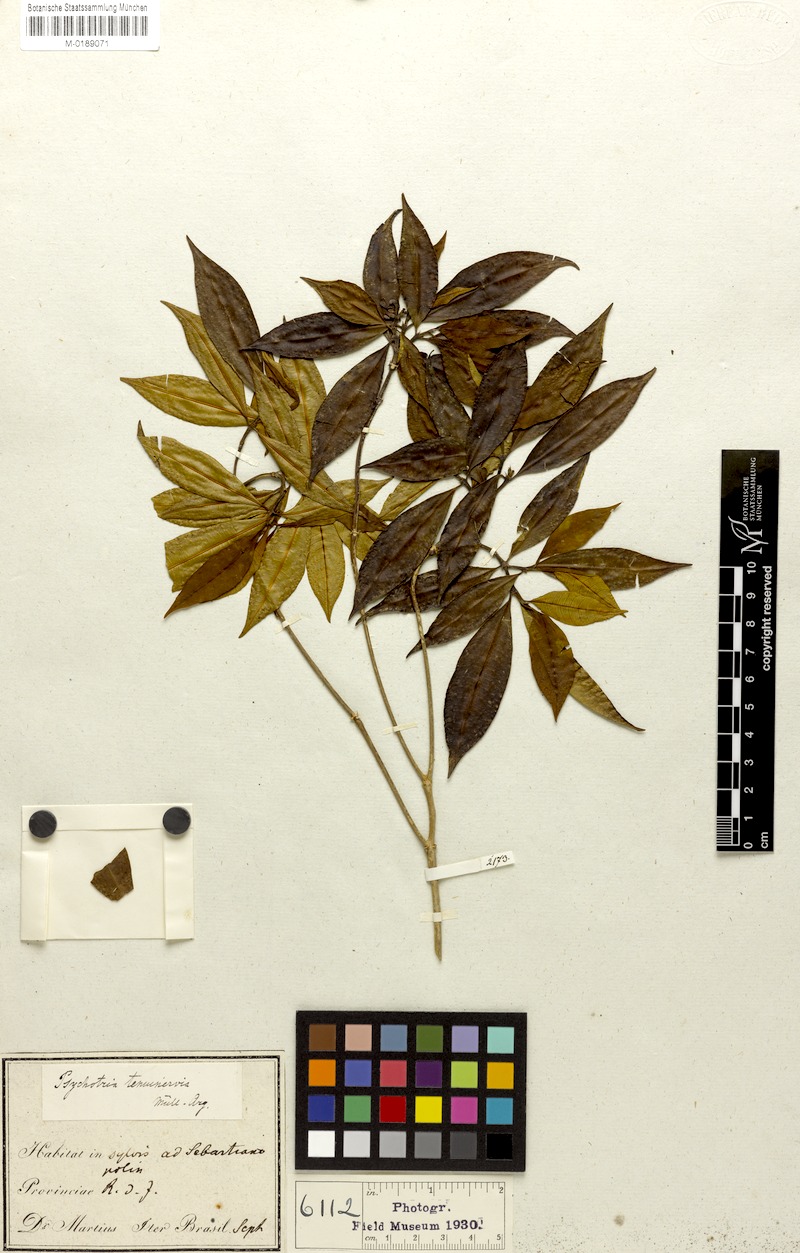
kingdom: Plantae
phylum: Tracheophyta
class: Magnoliopsida
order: Gentianales
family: Rubiaceae
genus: Psychotria
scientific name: Psychotria tenuinervis
